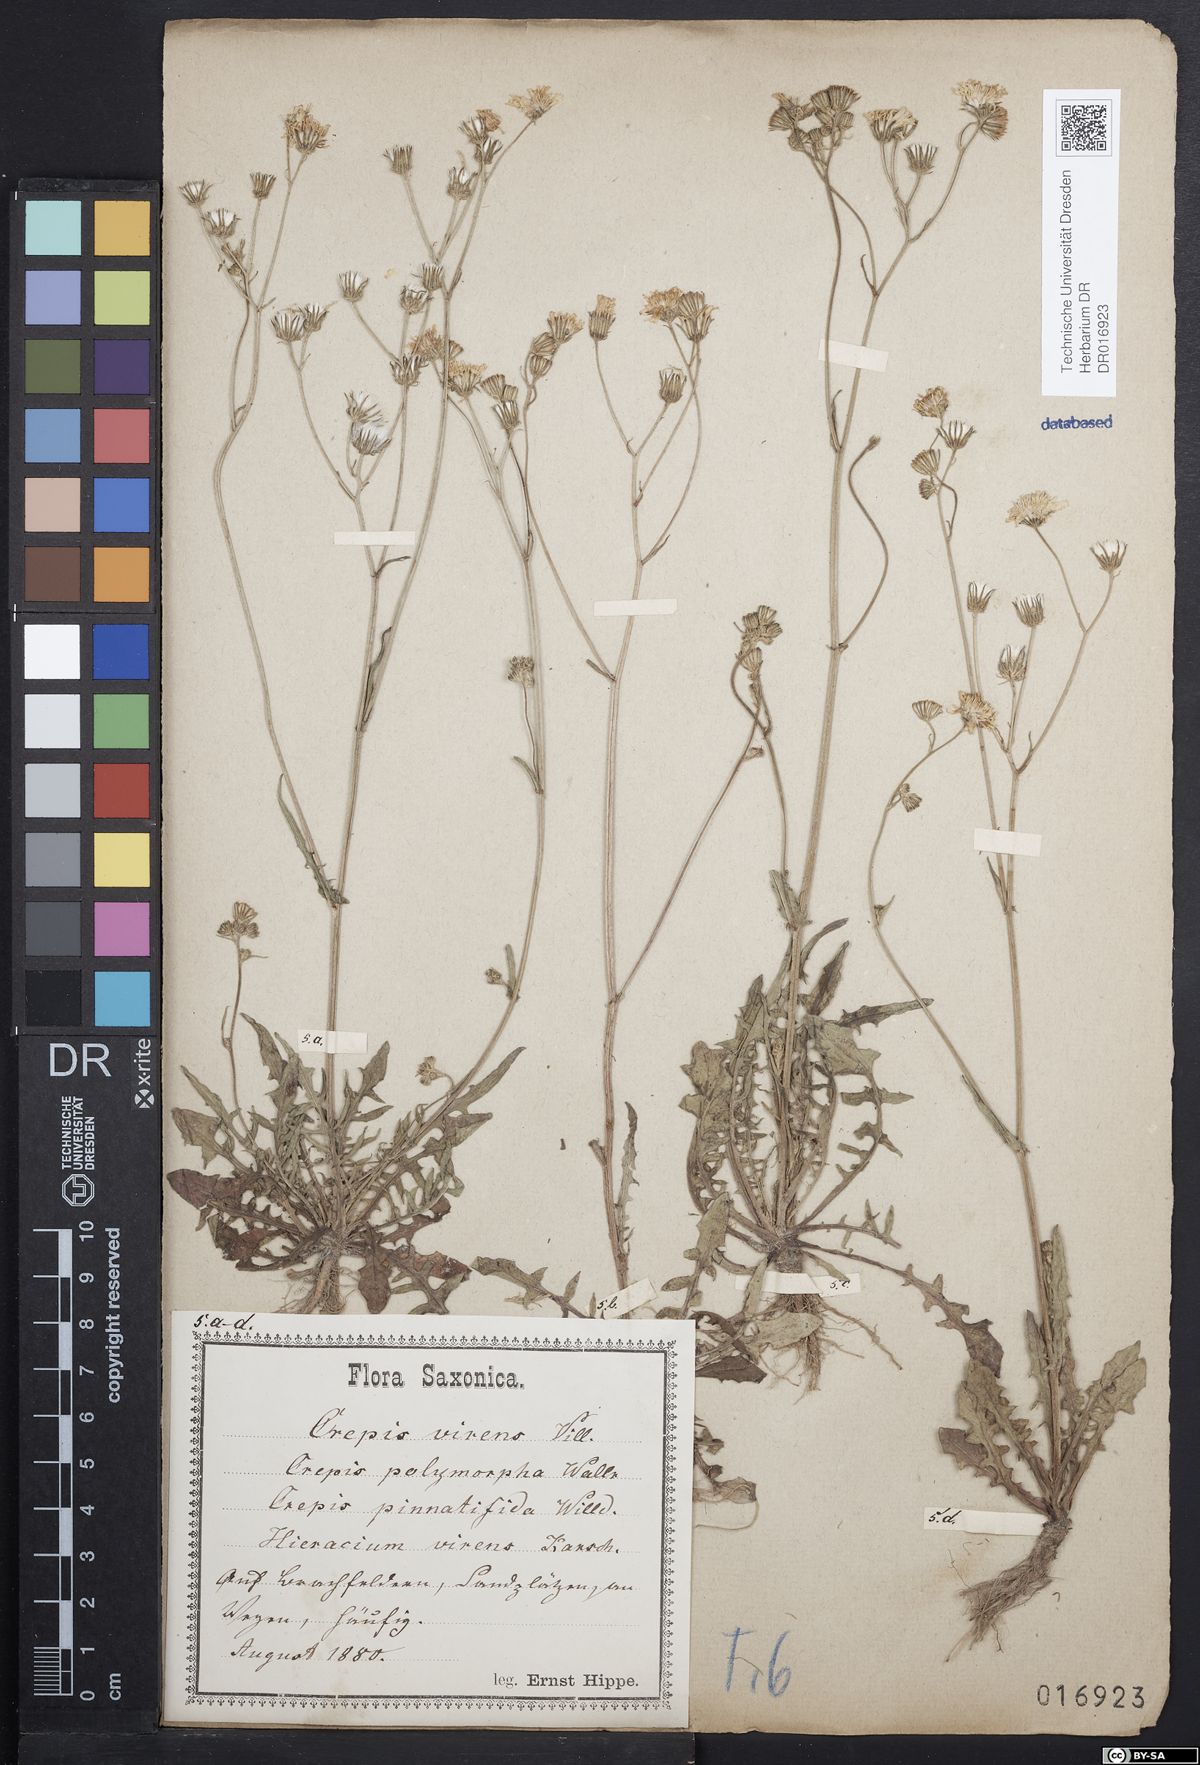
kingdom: Plantae
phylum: Tracheophyta
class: Magnoliopsida
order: Asterales
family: Asteraceae
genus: Crepis
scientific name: Crepis capillaris
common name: Smooth hawksbeard
